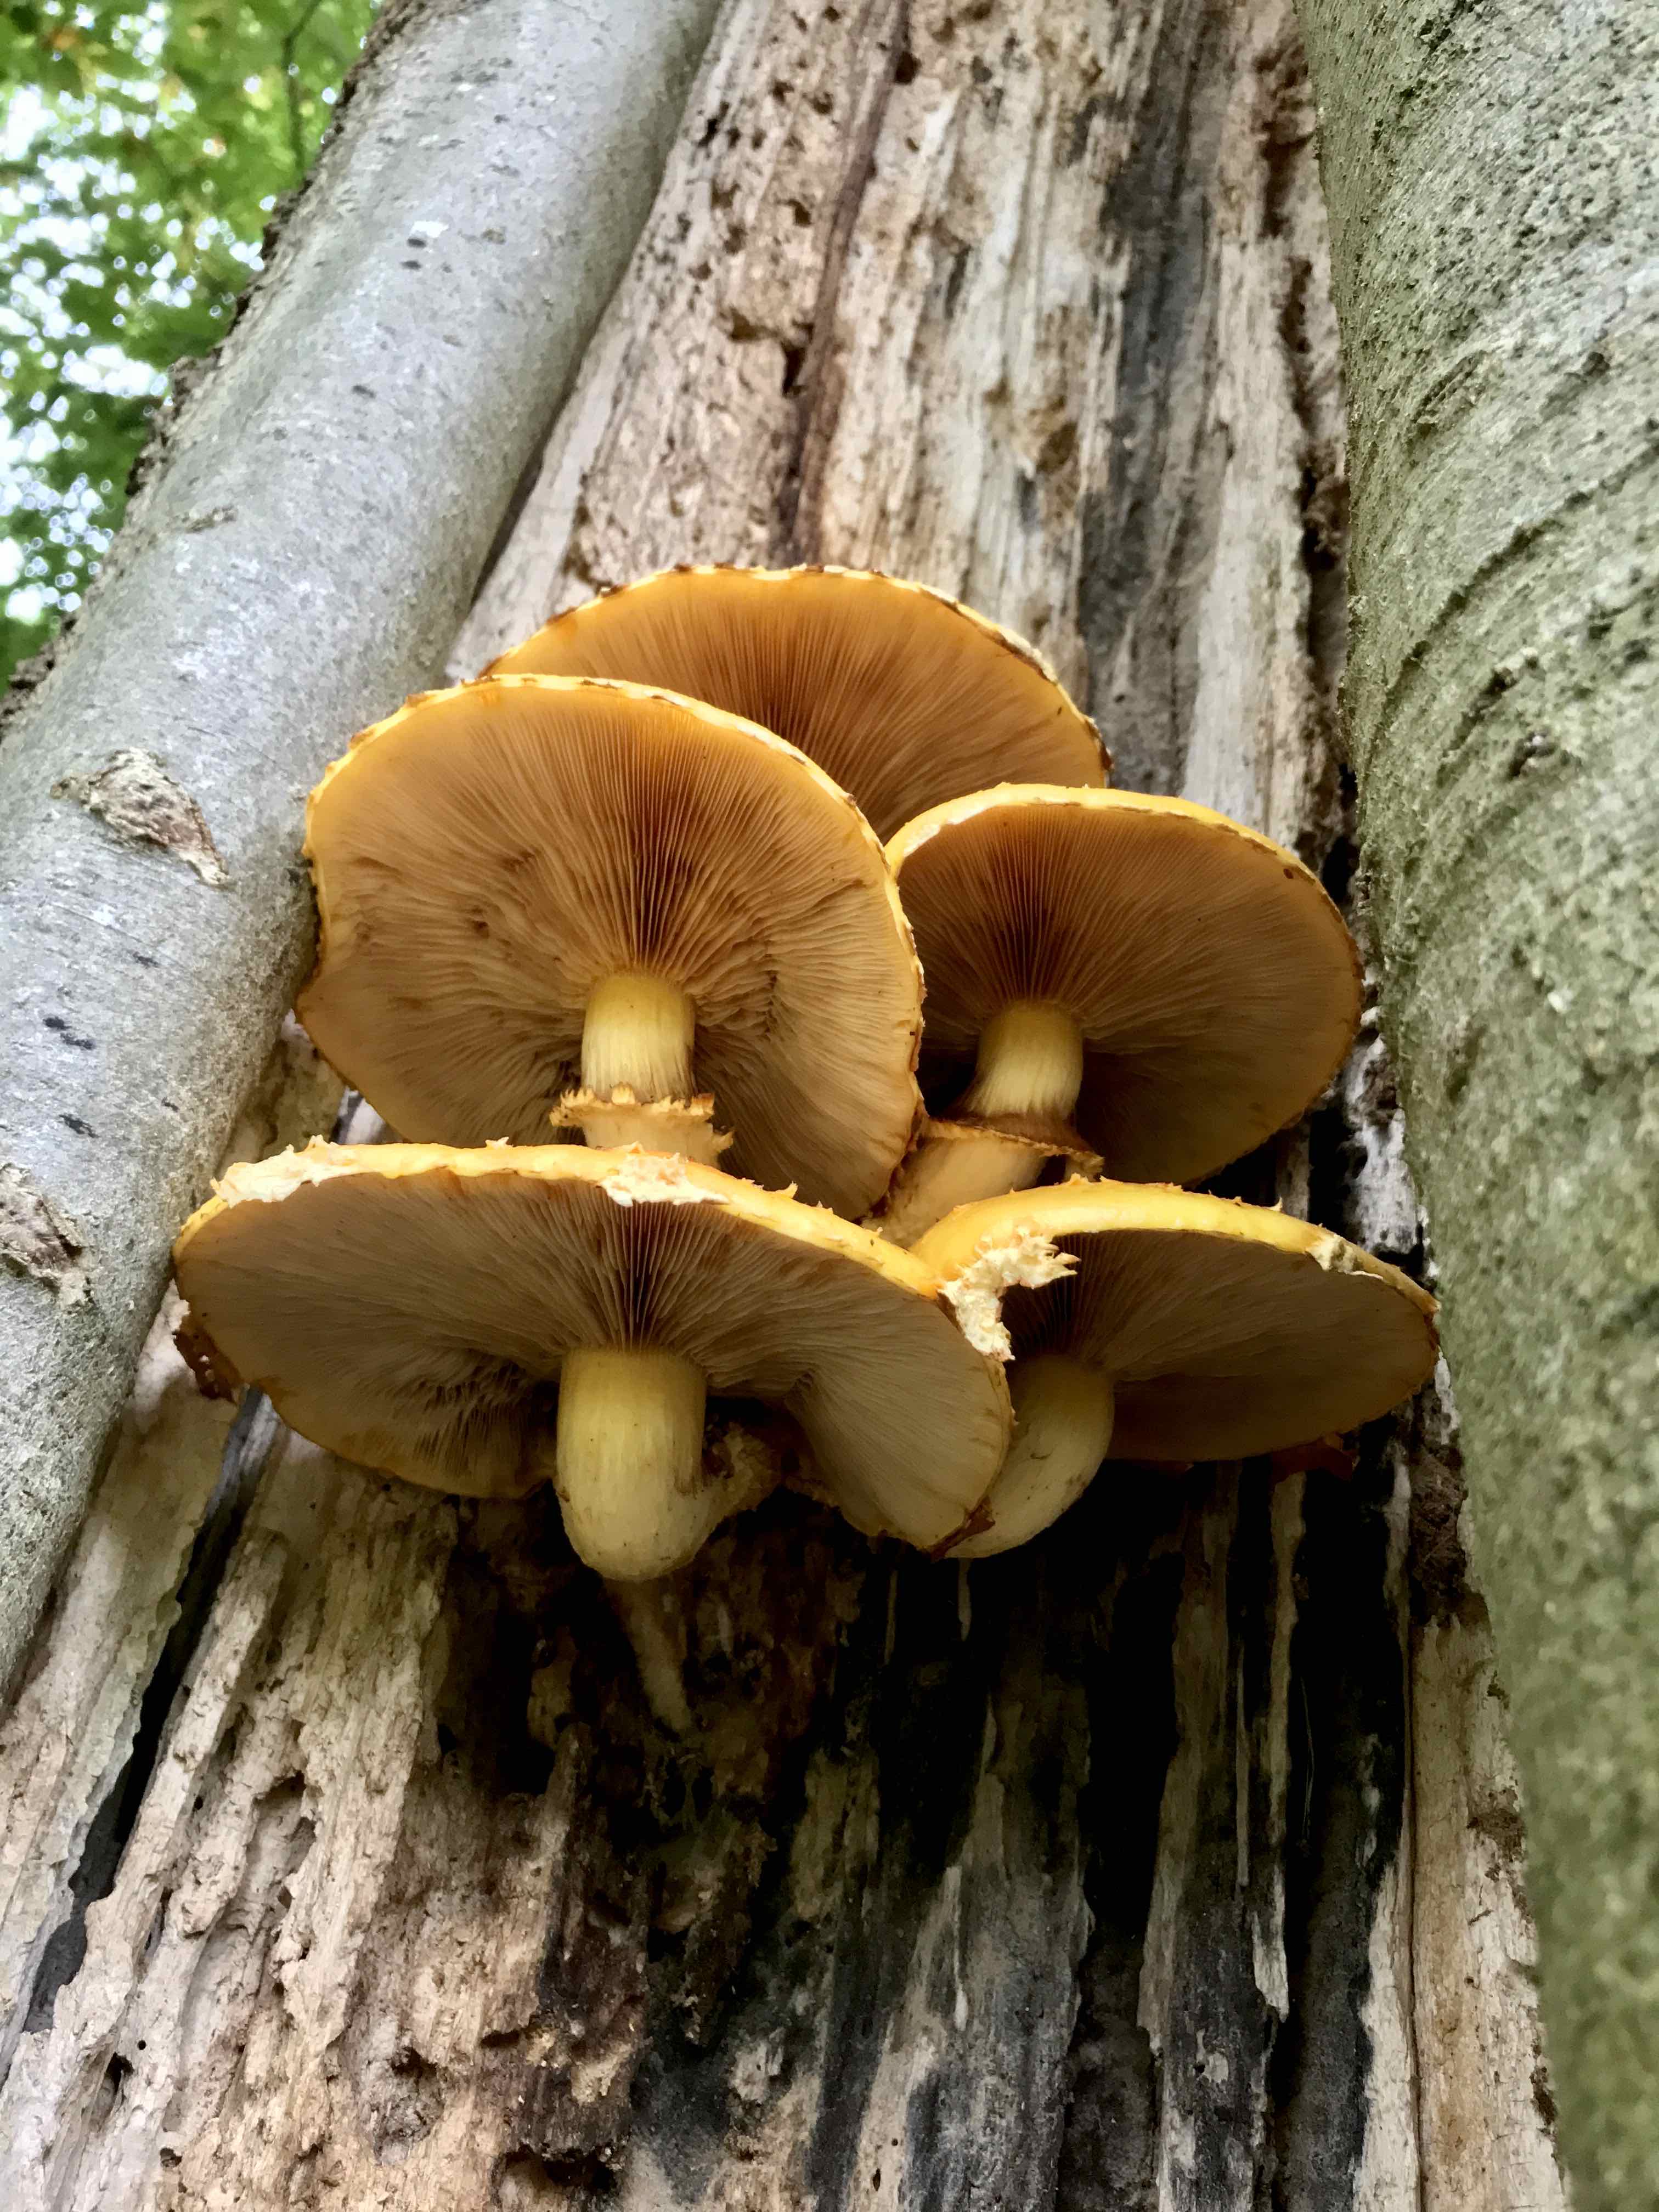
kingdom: Fungi
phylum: Basidiomycota
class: Agaricomycetes
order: Agaricales
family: Strophariaceae
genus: Pholiota
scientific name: Pholiota adiposa
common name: højtsiddende skælhat
